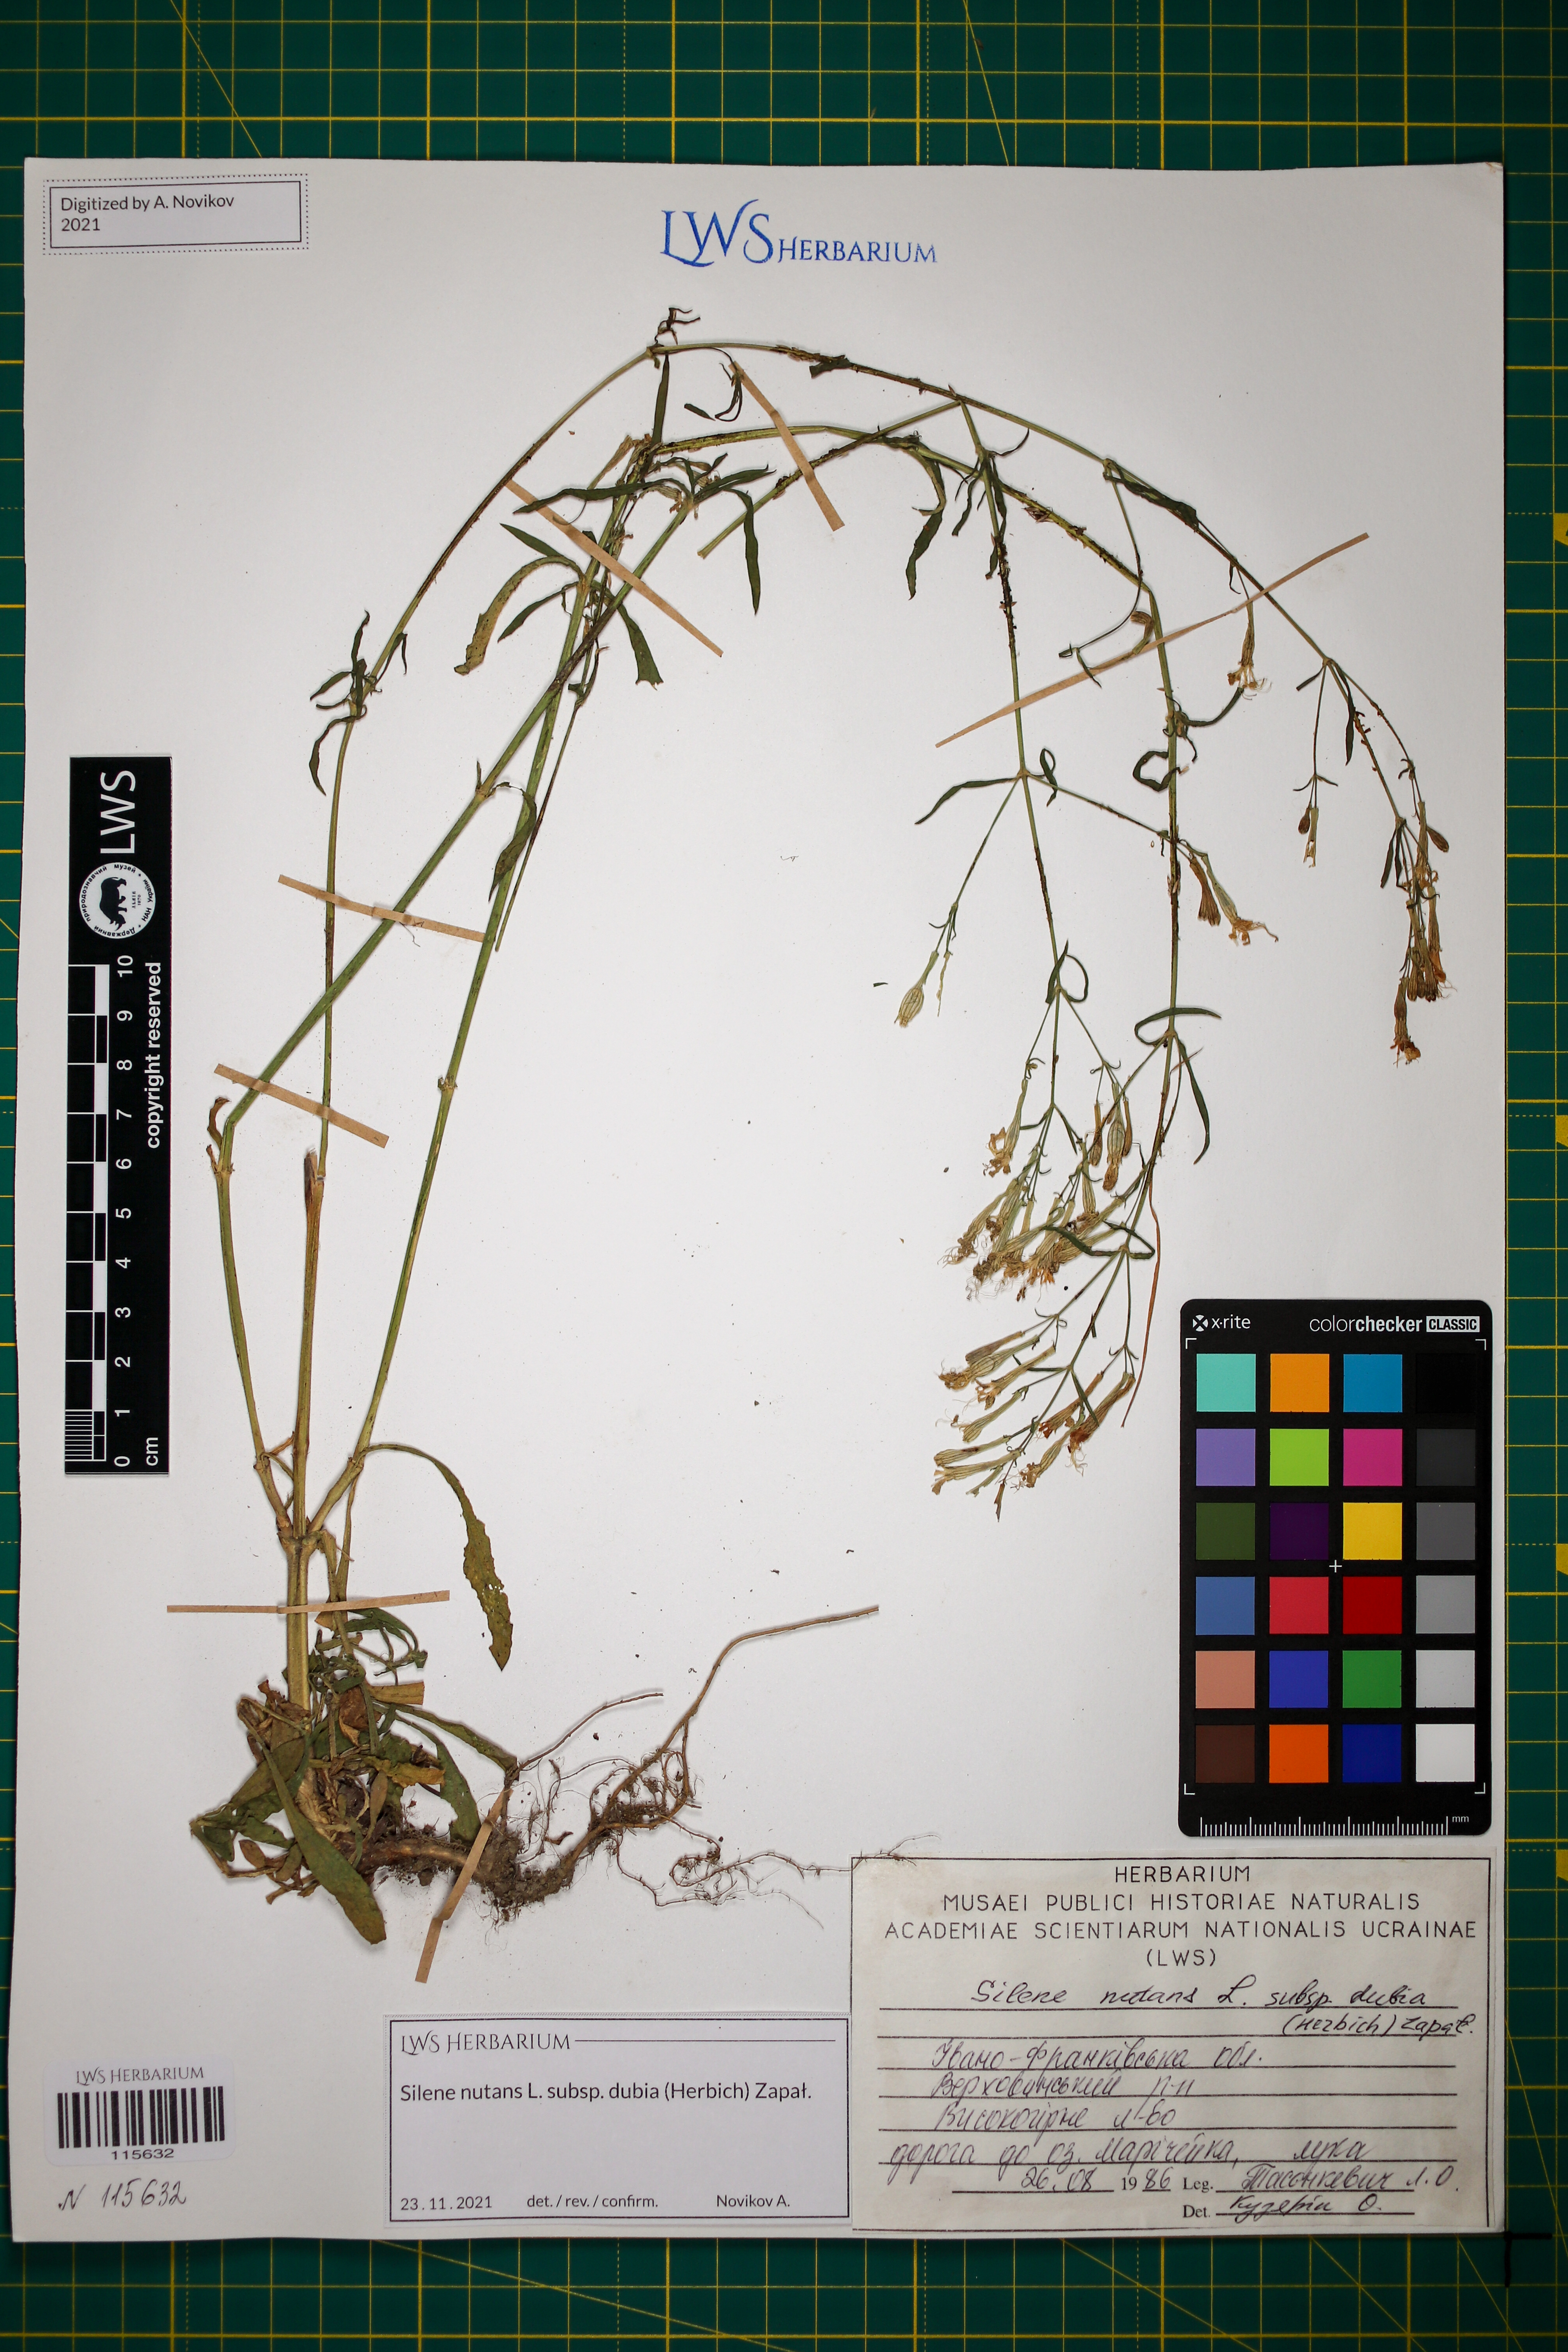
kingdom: Plantae
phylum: Tracheophyta
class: Magnoliopsida
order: Caryophyllales
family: Caryophyllaceae
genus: Silene
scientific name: Silene nutans
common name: Nottingham catchfly
